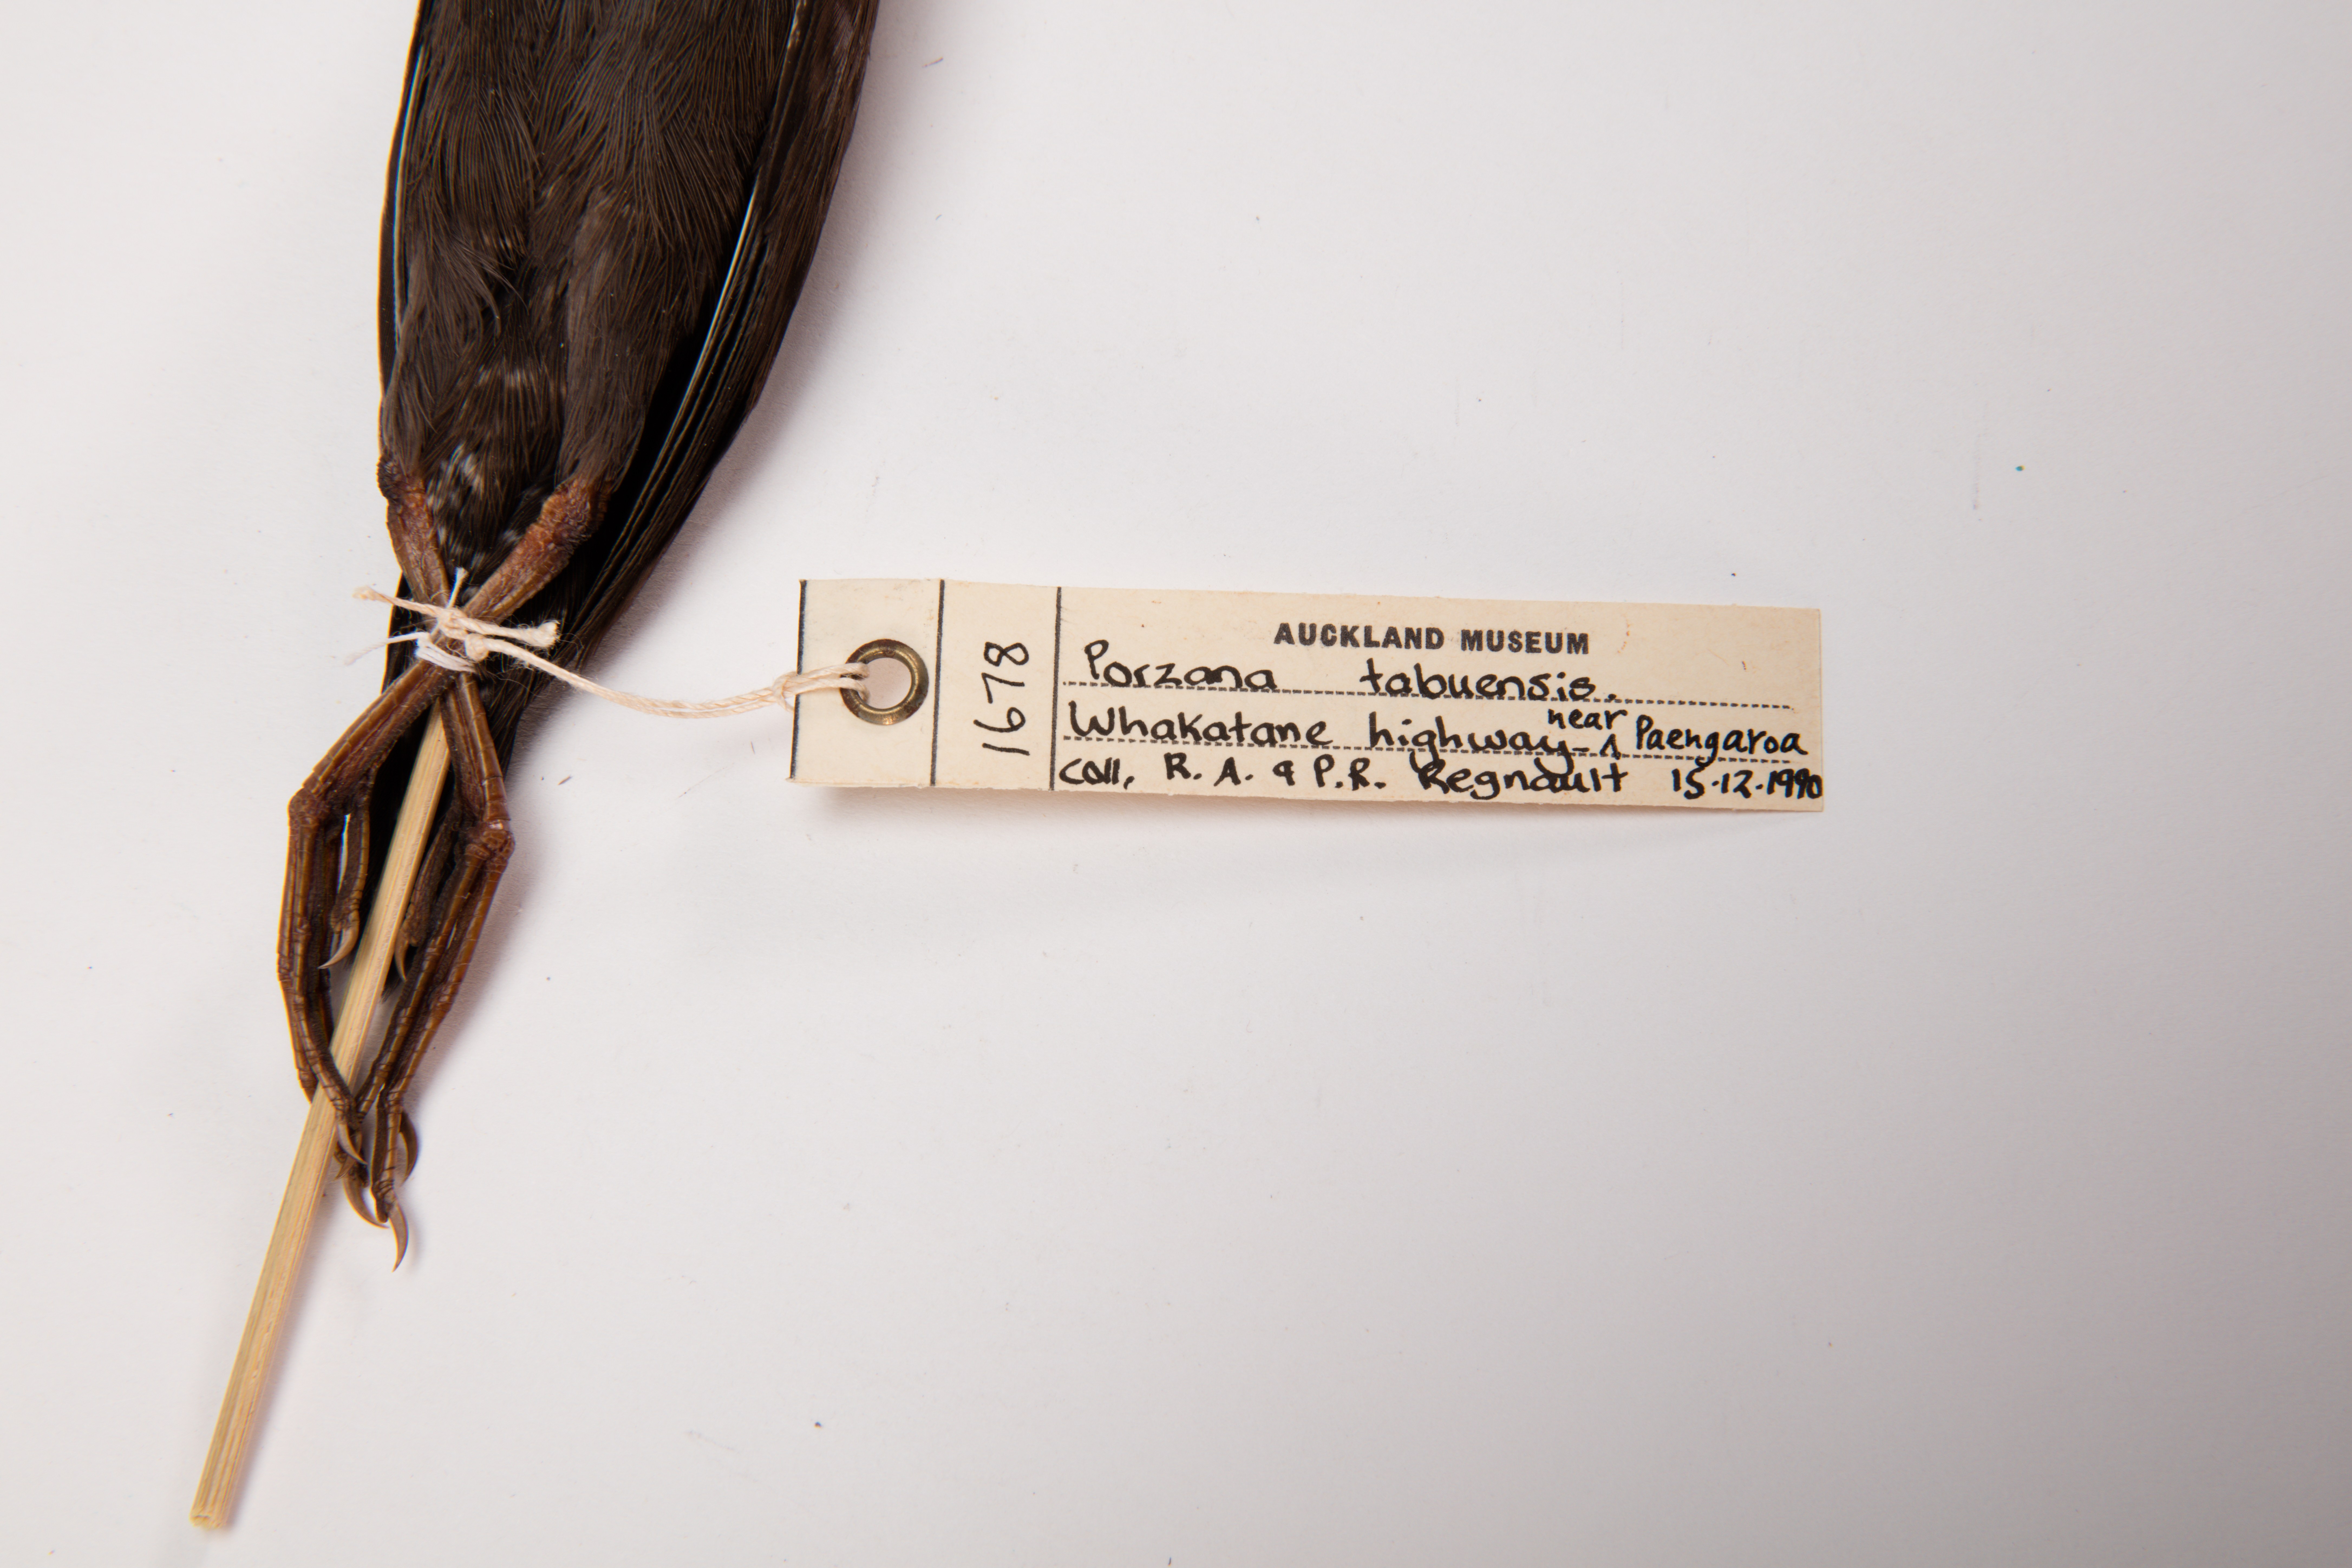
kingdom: Animalia
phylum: Chordata
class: Aves
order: Gruiformes
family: Rallidae
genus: Porzana
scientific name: Porzana tabuensis
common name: Spotless crake
